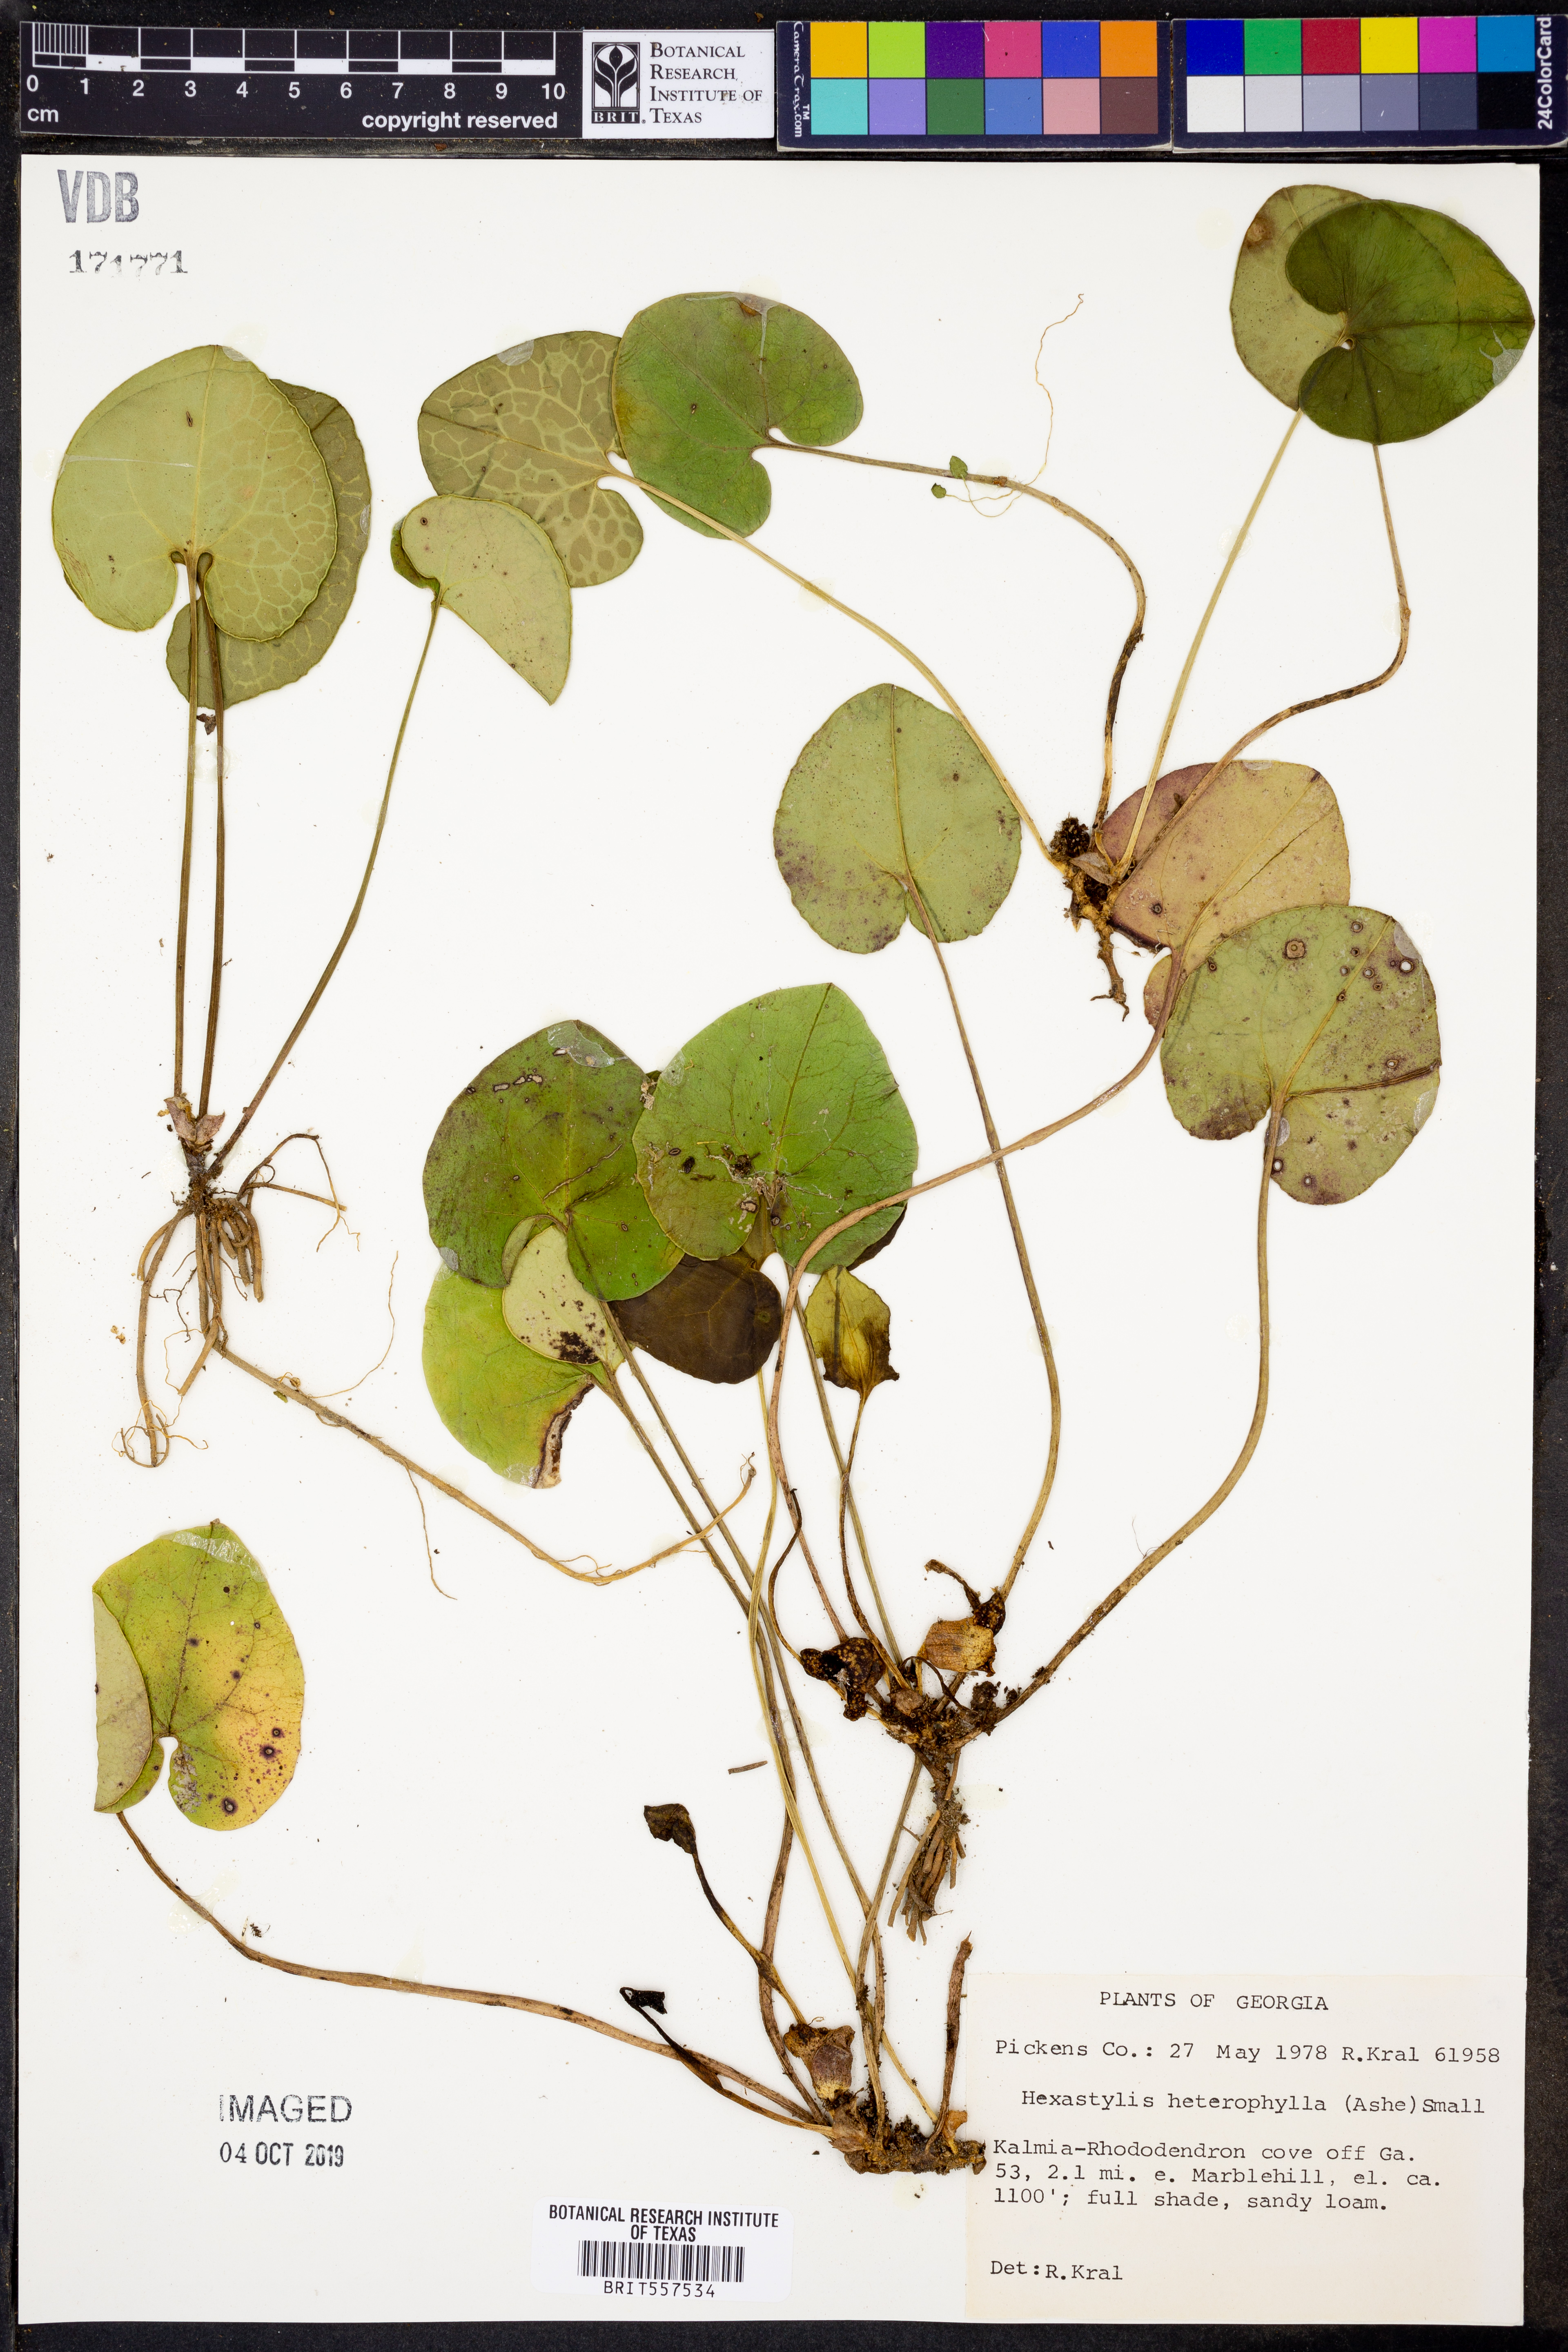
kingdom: Plantae
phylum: Tracheophyta
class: Magnoliopsida
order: Piperales
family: Aristolochiaceae
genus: Hexastylis
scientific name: Hexastylis heterophylla
